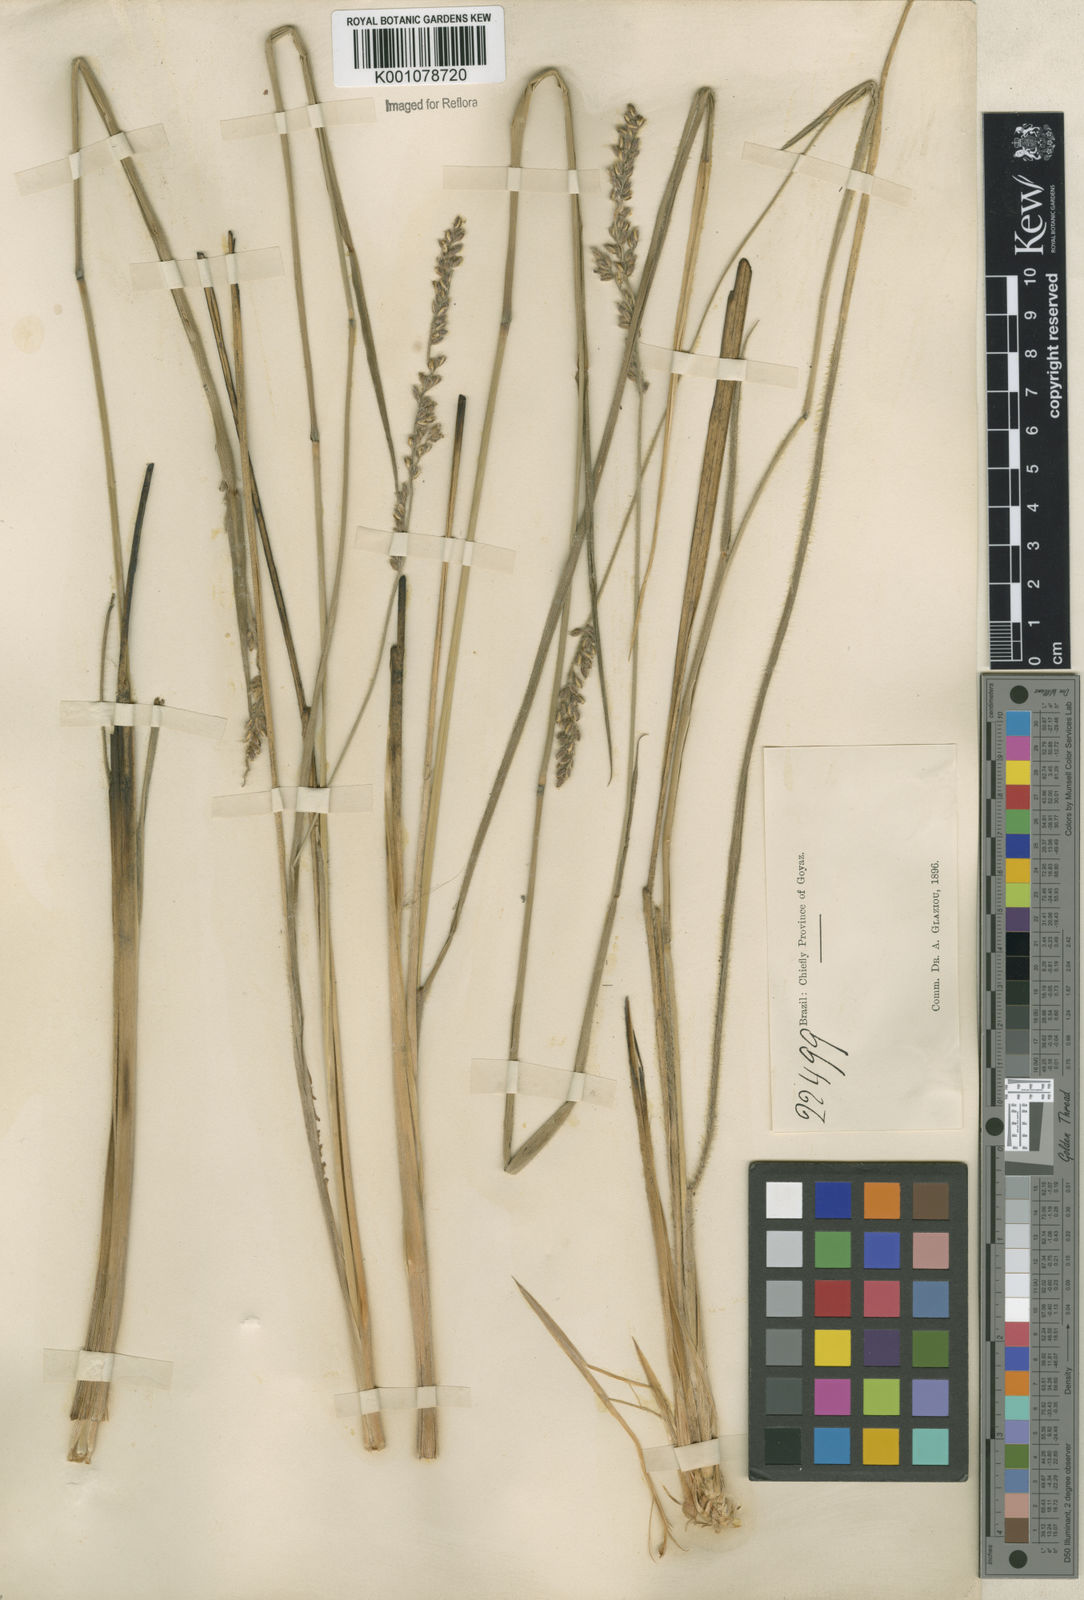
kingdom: Plantae
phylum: Tracheophyta
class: Liliopsida
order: Poales
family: Poaceae
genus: Anthaenantiopsis
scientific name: Anthaenantiopsis perforata
